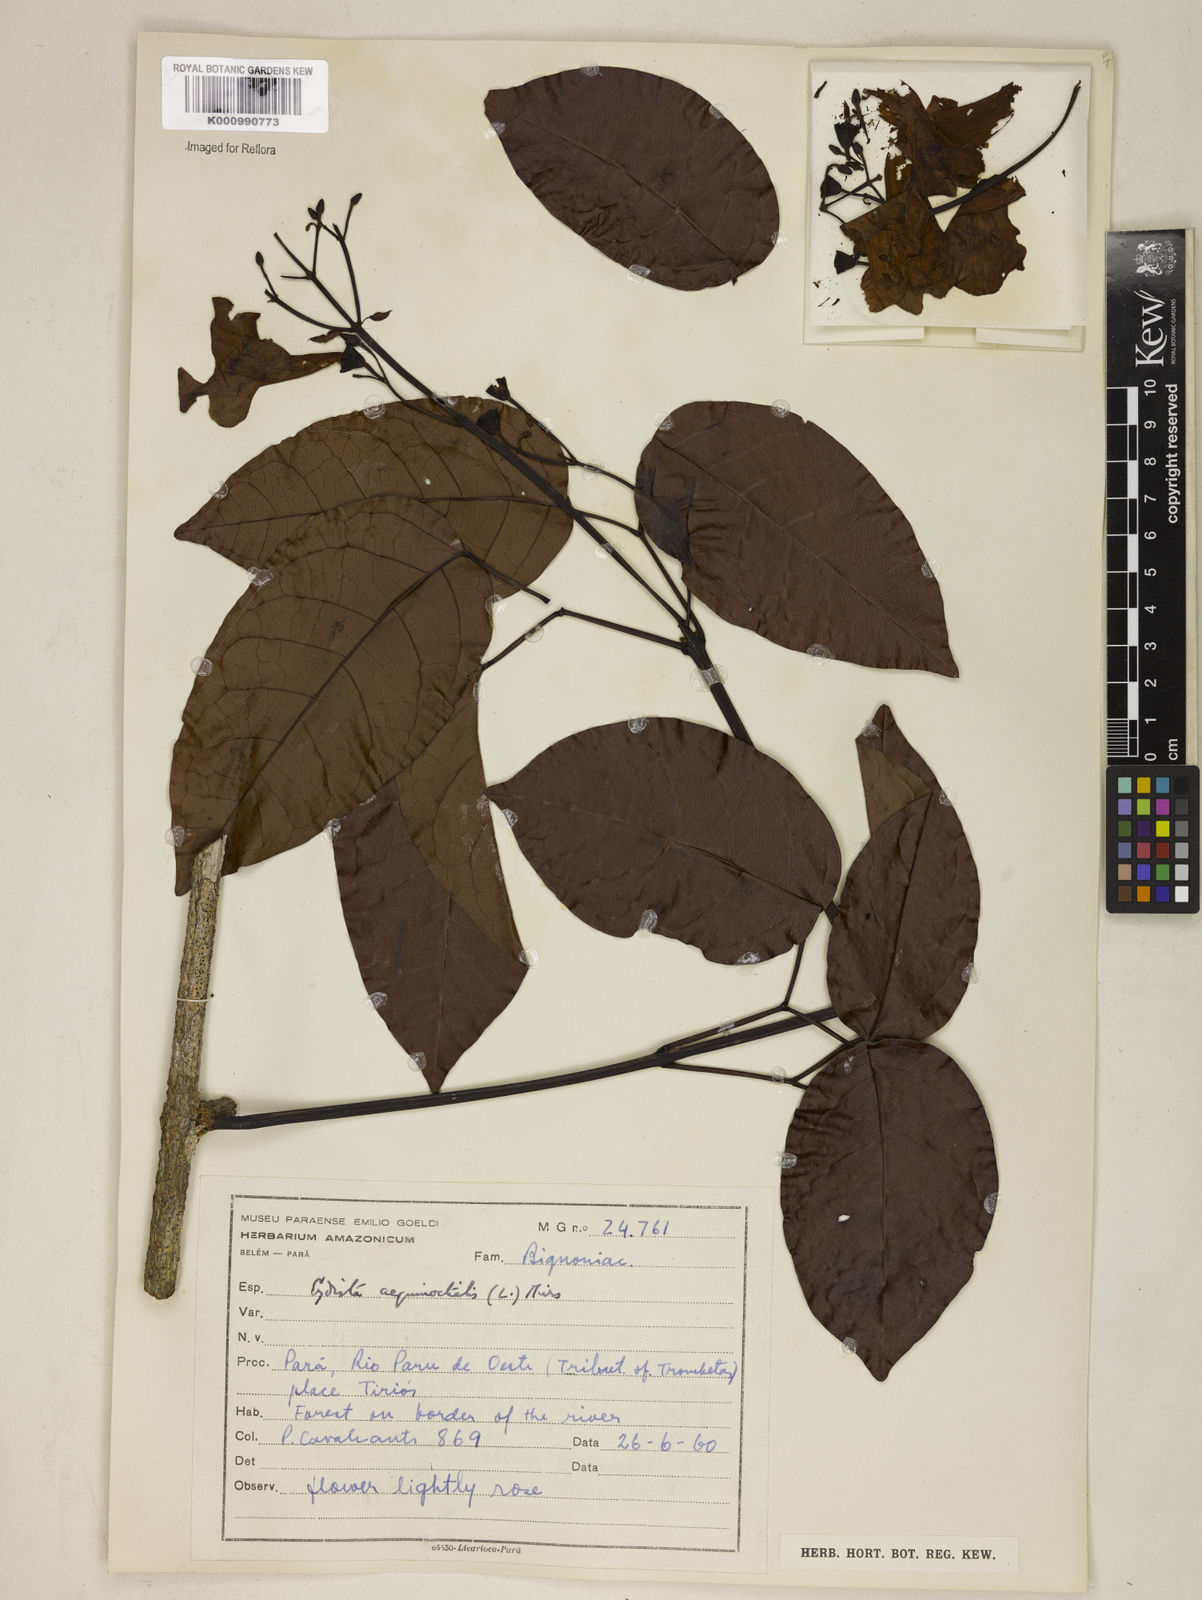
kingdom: Plantae
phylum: Tracheophyta
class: Magnoliopsida
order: Lamiales
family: Bignoniaceae
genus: Bignonia
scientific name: Bignonia aequinoctialis
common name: Garlicvine
